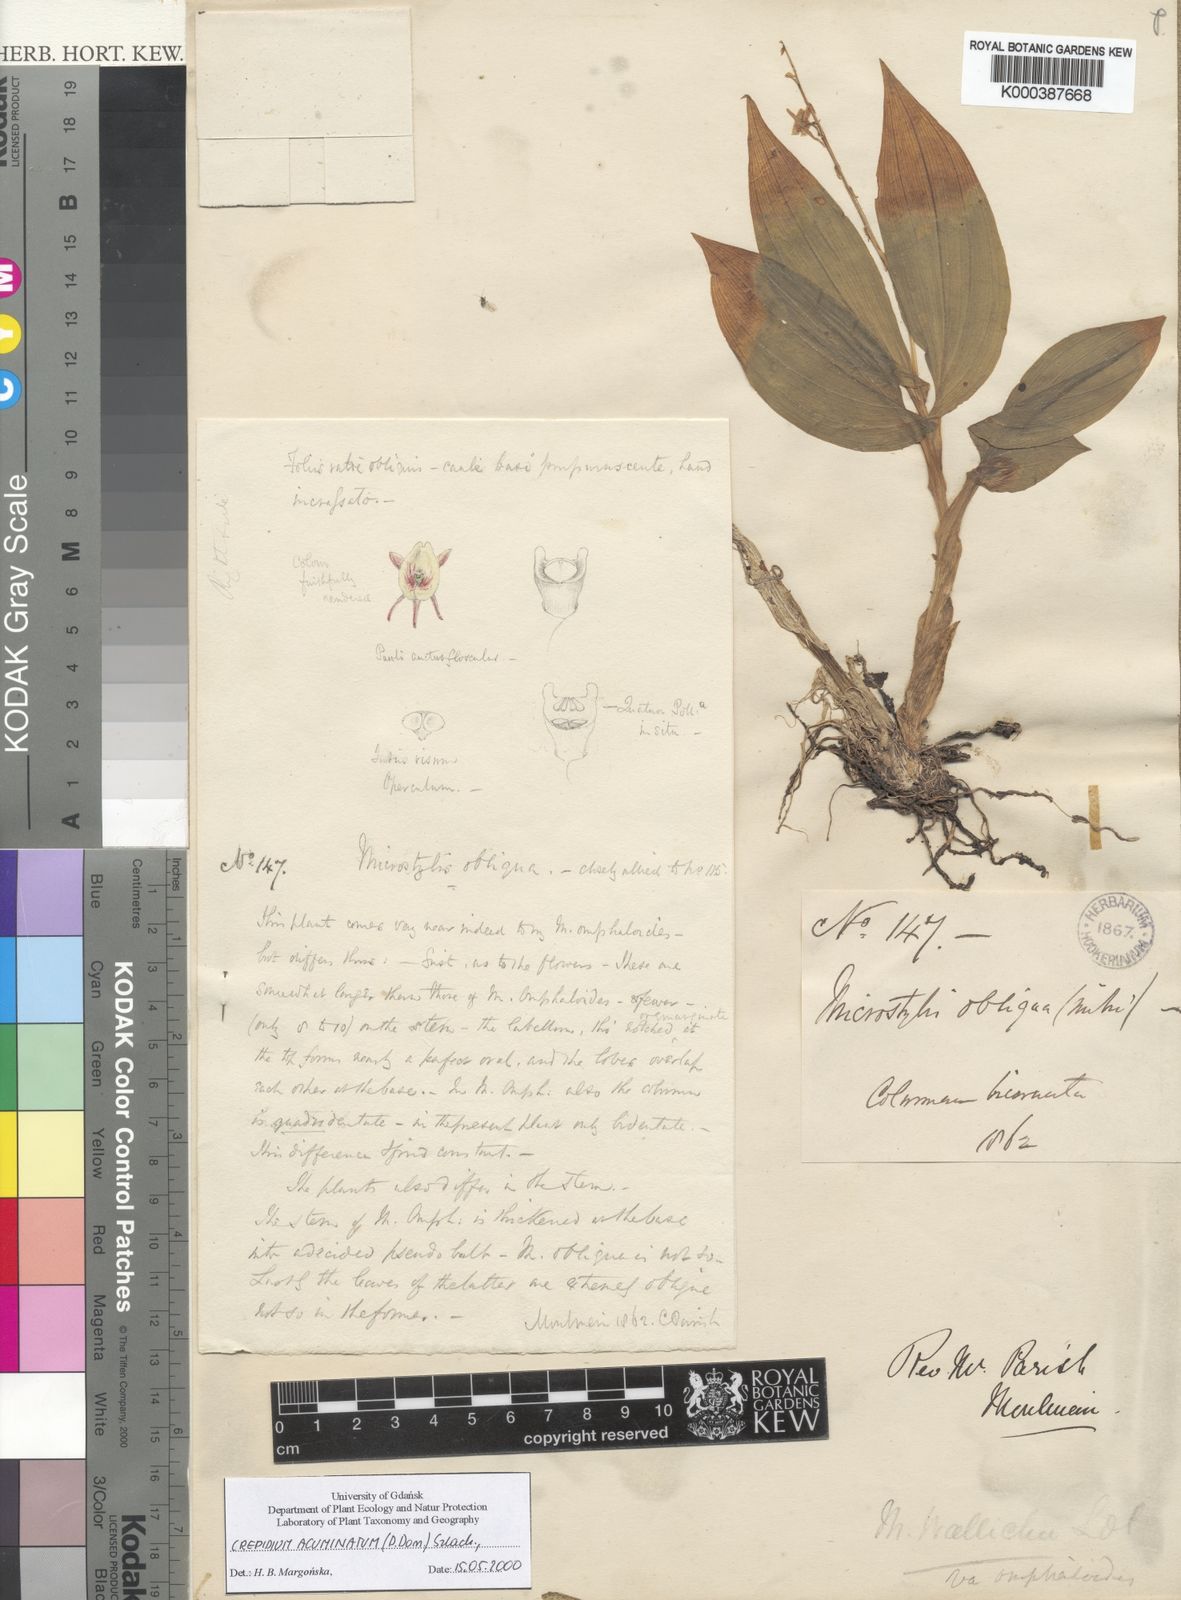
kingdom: Plantae
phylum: Tracheophyta
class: Liliopsida
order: Asparagales
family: Orchidaceae
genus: Crepidium
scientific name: Crepidium acuminatum
